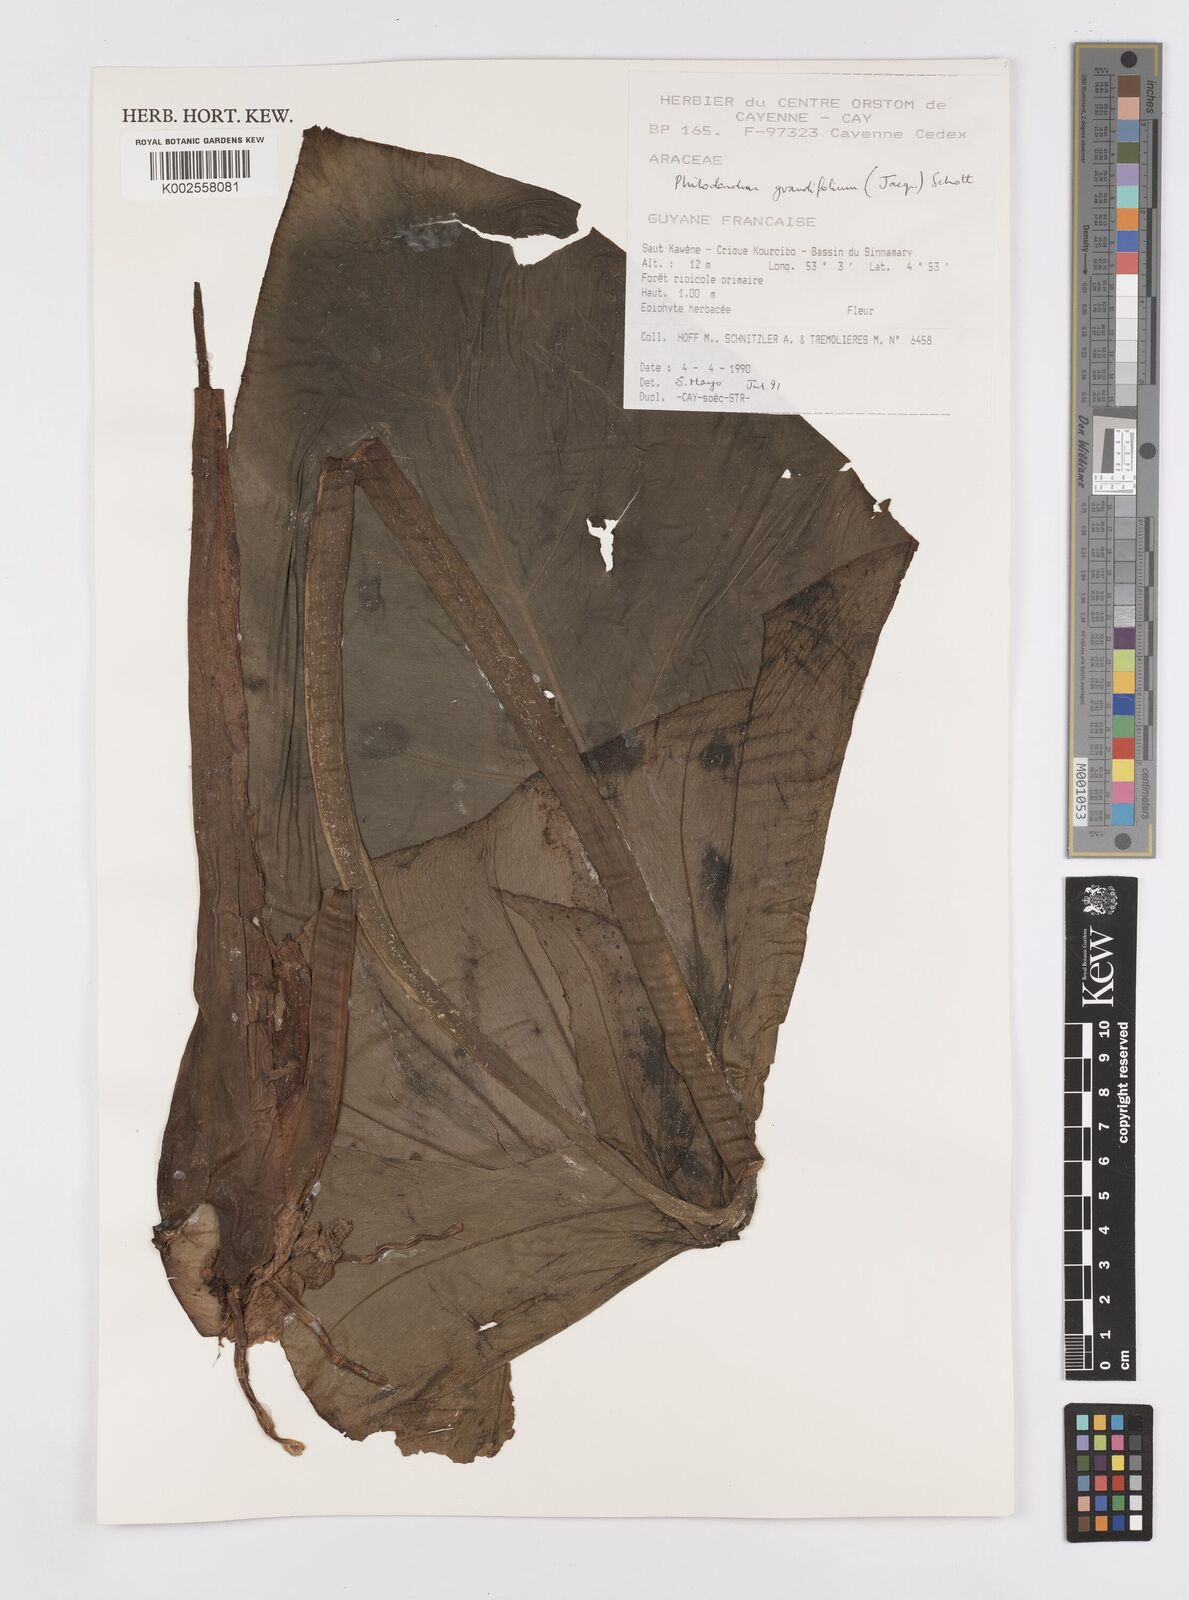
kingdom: Plantae
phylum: Tracheophyta
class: Liliopsida
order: Alismatales
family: Araceae
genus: Philodendron
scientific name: Philodendron grandifolium
